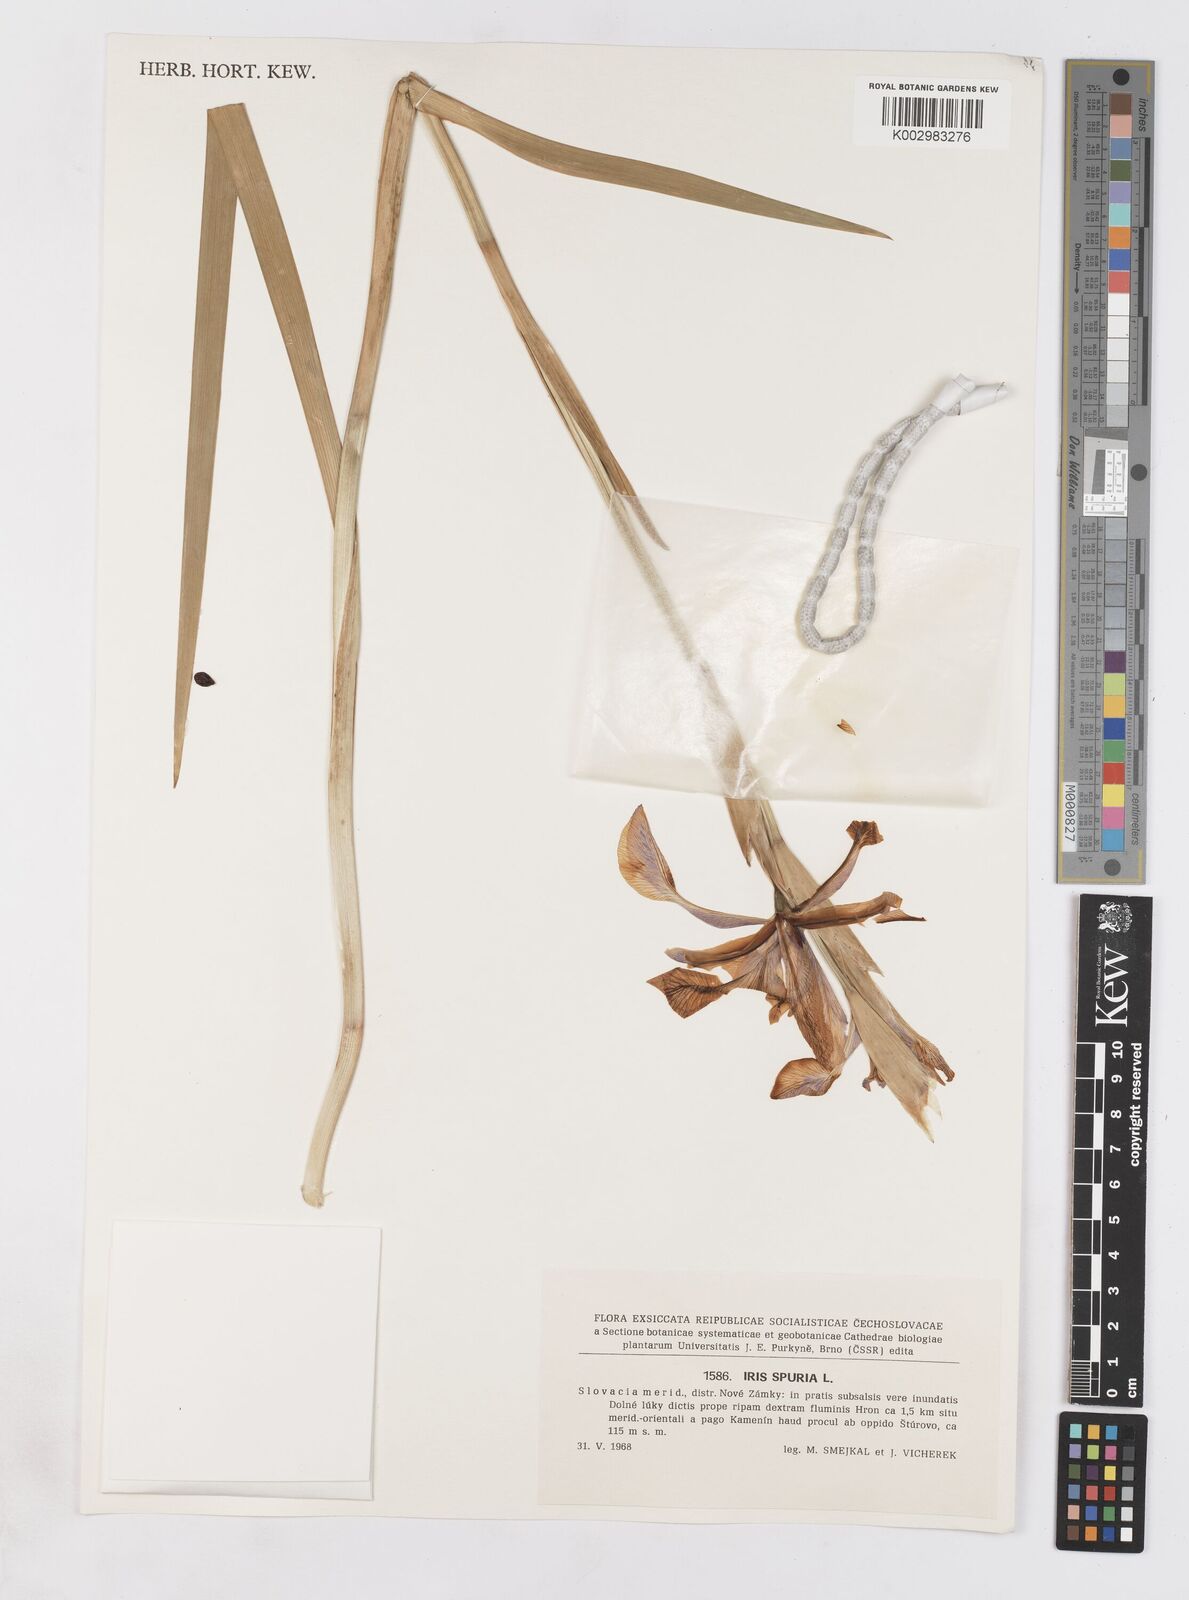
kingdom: Plantae
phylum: Tracheophyta
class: Liliopsida
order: Asparagales
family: Iridaceae
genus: Iris
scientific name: Iris spuria
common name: Blue iris
